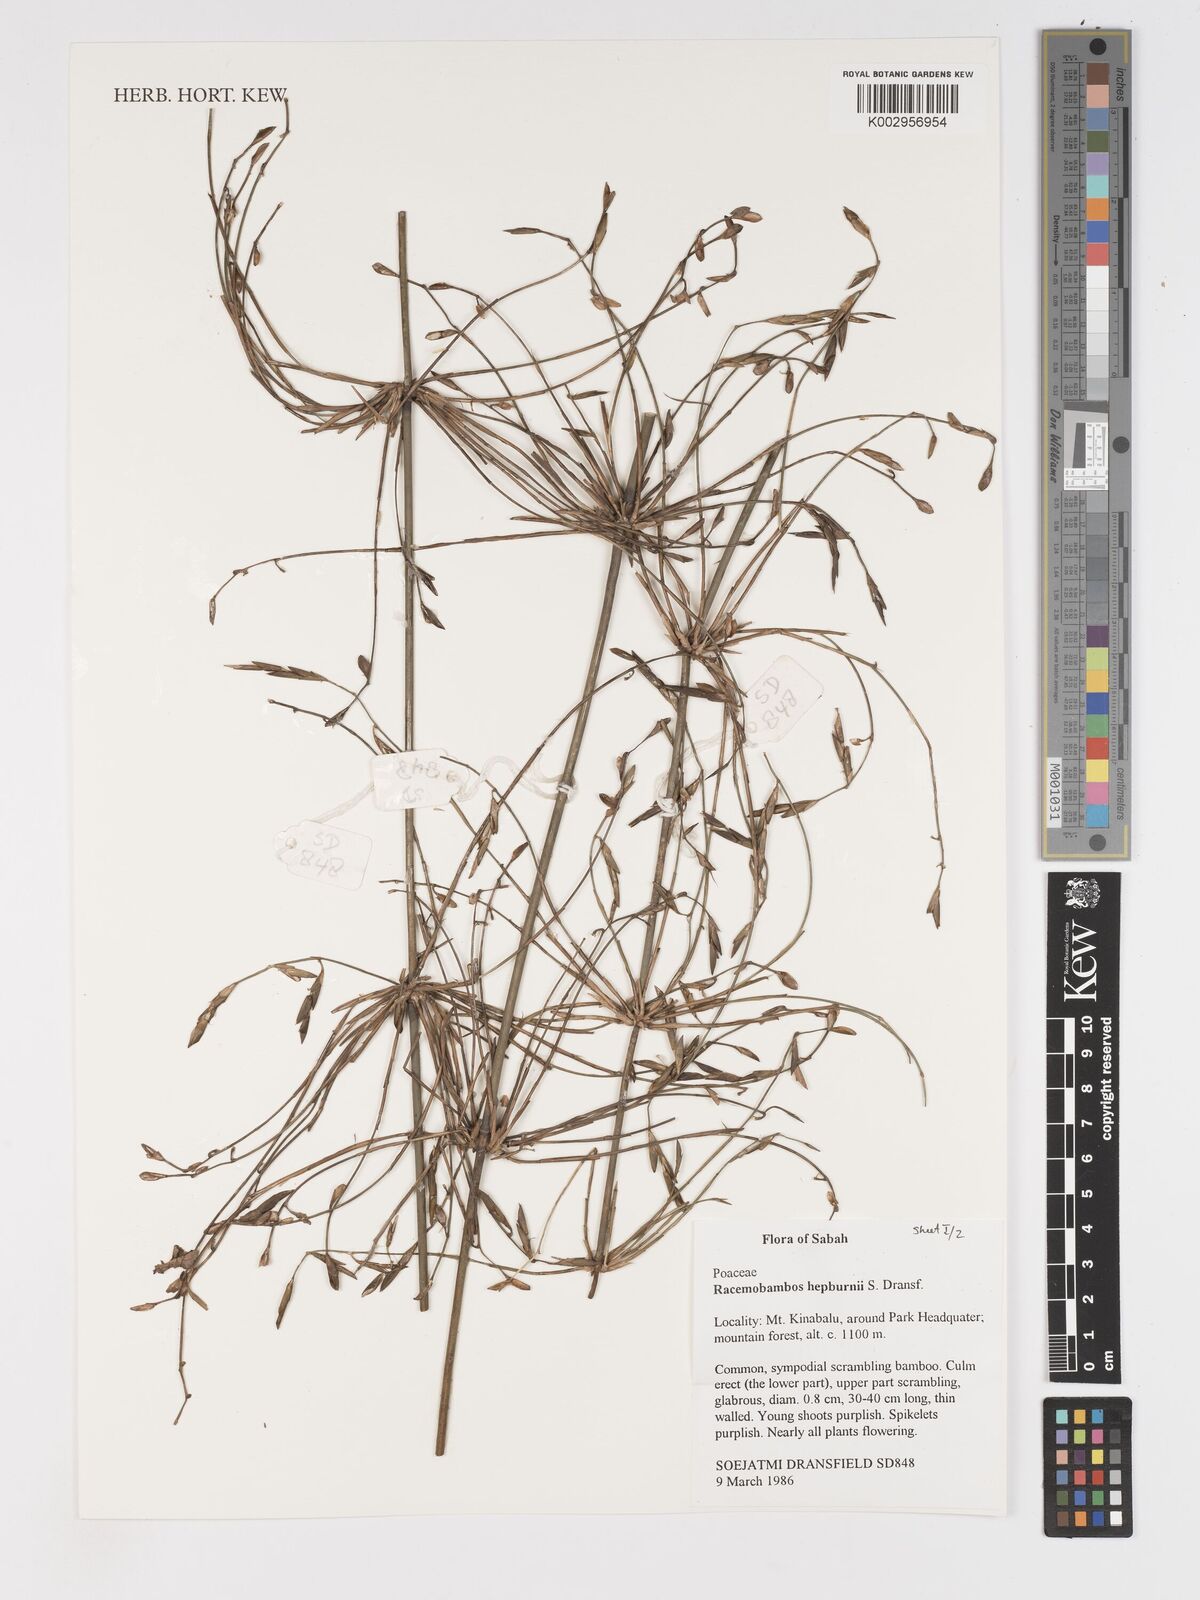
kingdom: Plantae
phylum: Tracheophyta
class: Liliopsida
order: Poales
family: Poaceae
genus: Racemobambos
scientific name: Racemobambos hepburnii
